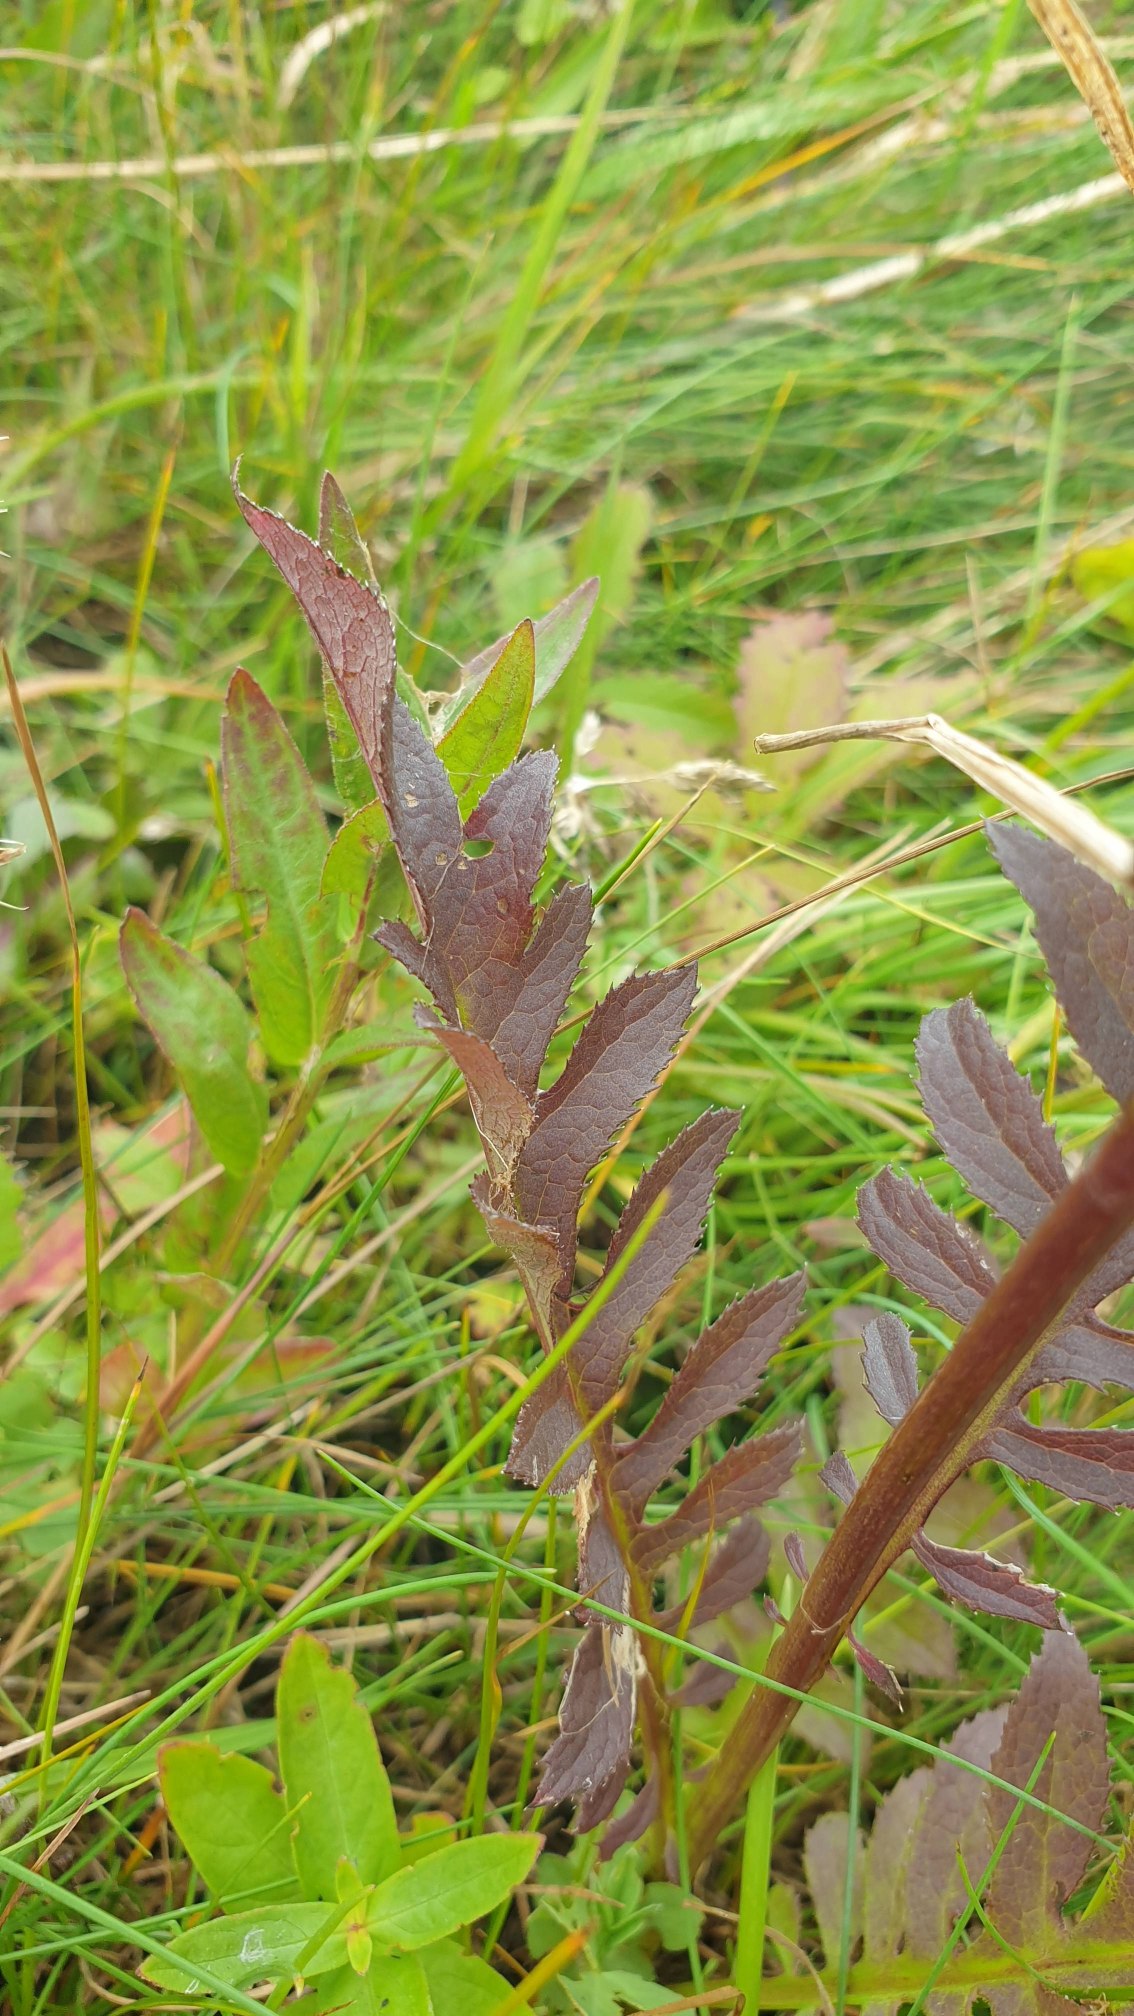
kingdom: Plantae
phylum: Tracheophyta
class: Magnoliopsida
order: Asterales
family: Asteraceae
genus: Serratula
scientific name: Serratula tinctoria
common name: Eng-skær
